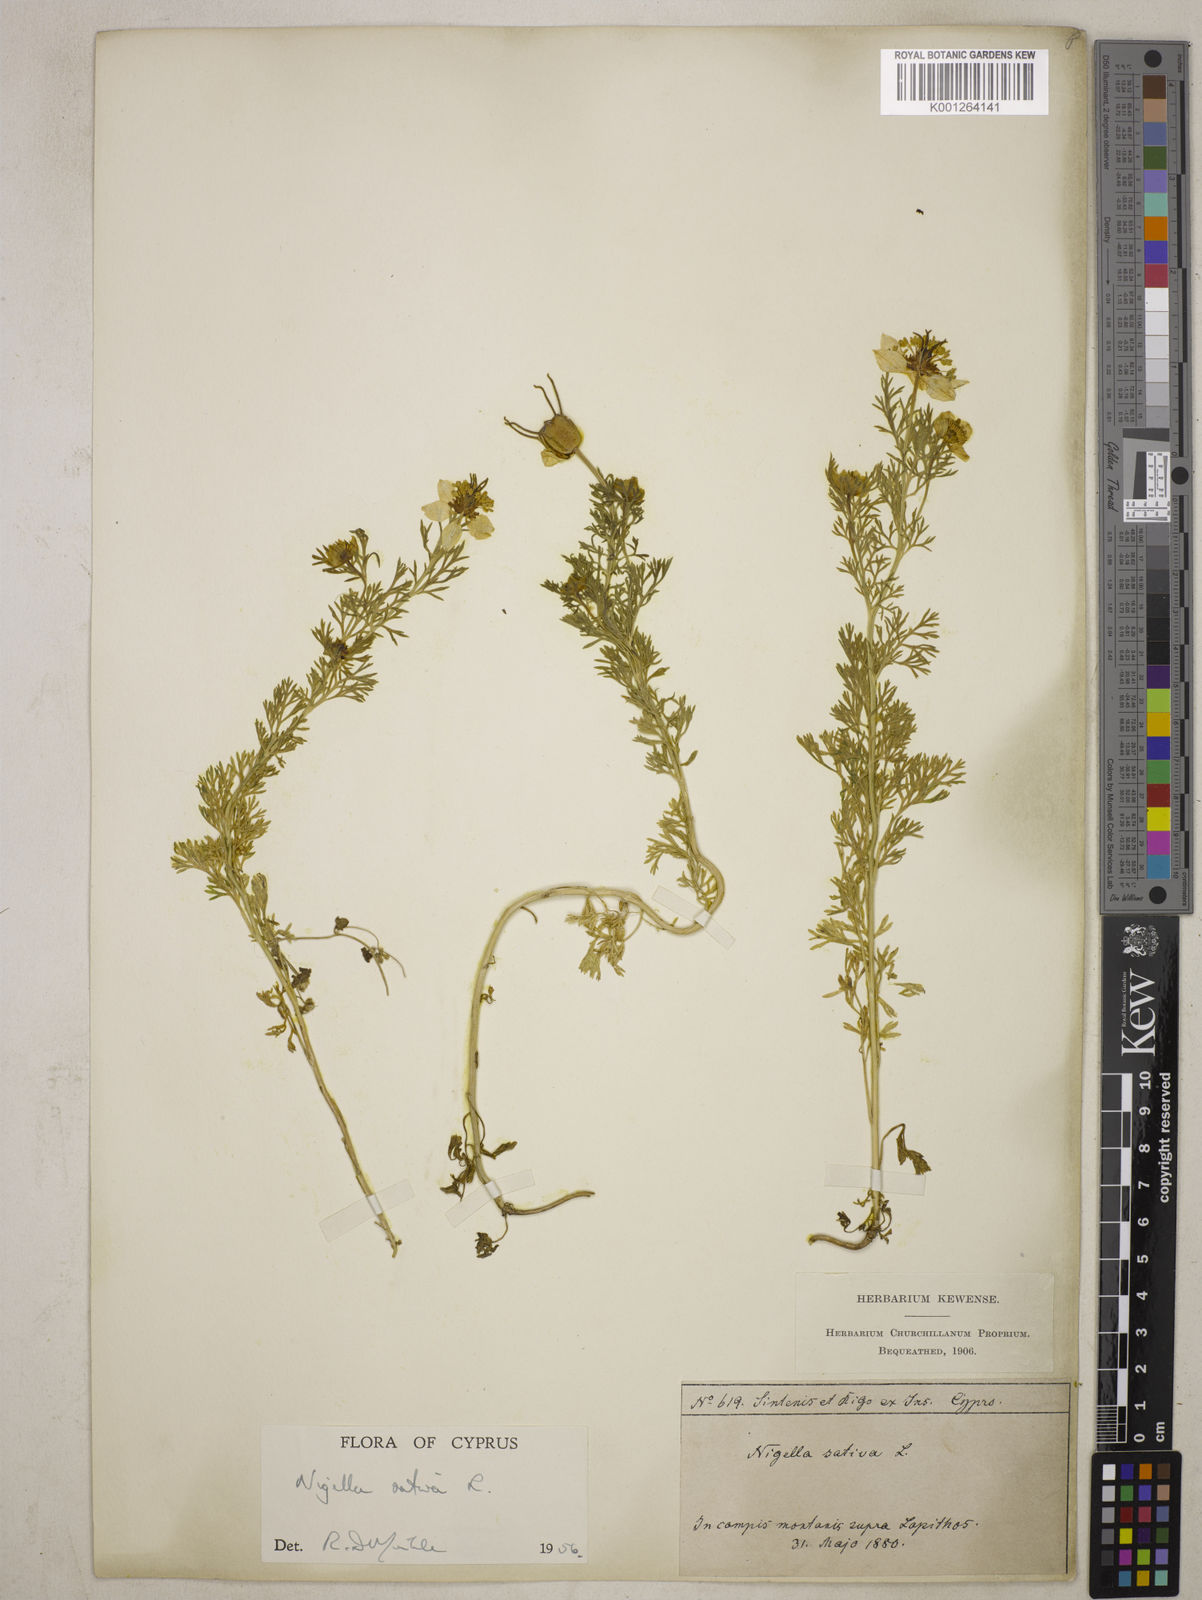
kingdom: Plantae
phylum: Tracheophyta
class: Magnoliopsida
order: Ranunculales
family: Ranunculaceae
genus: Nigella
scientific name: Nigella sativa
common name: Black-cumin
